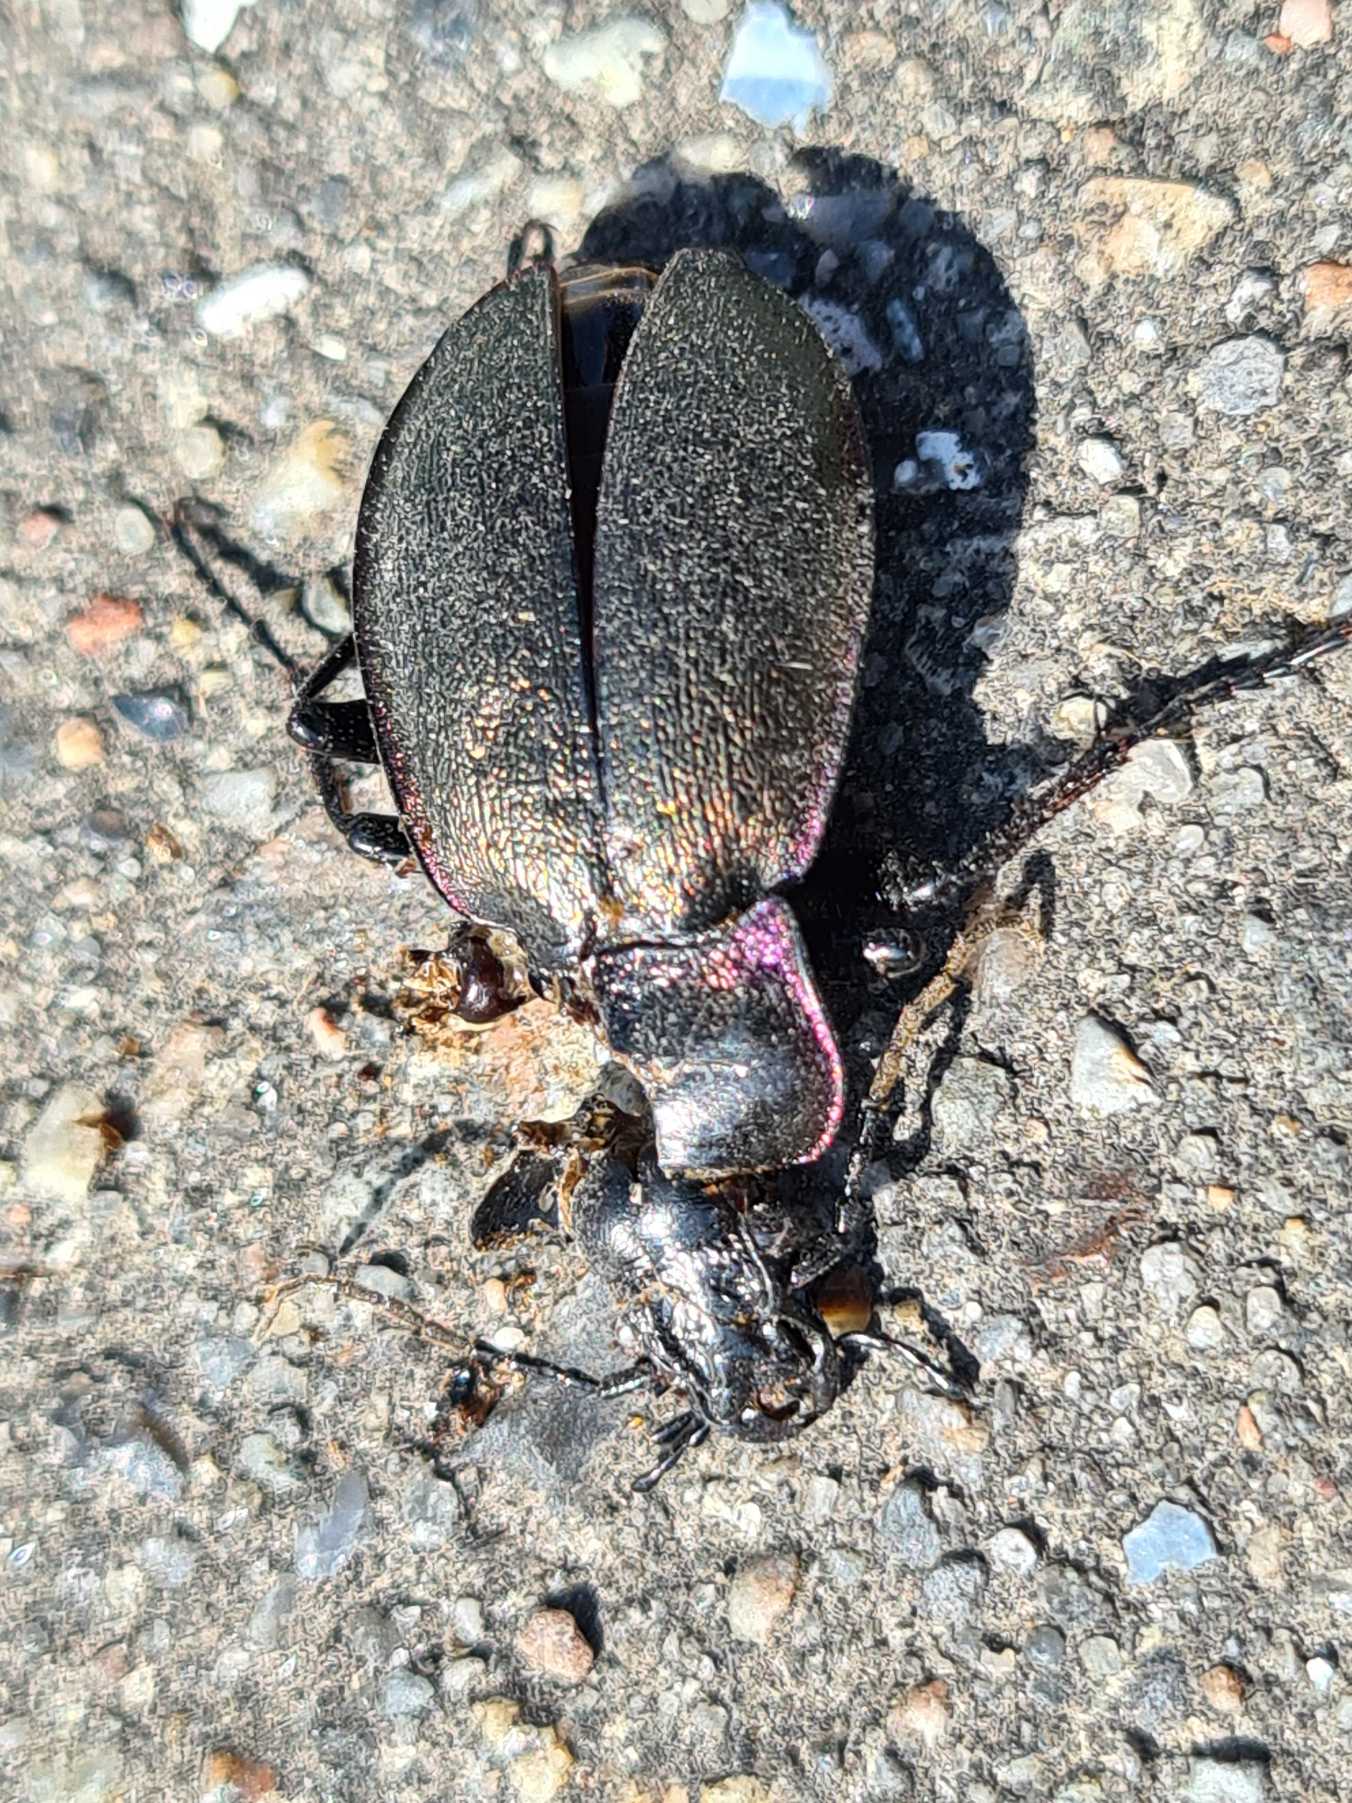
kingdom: Animalia
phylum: Arthropoda
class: Insecta
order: Coleoptera
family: Carabidae
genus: Carabus
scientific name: Carabus nemoralis
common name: Kratløber
